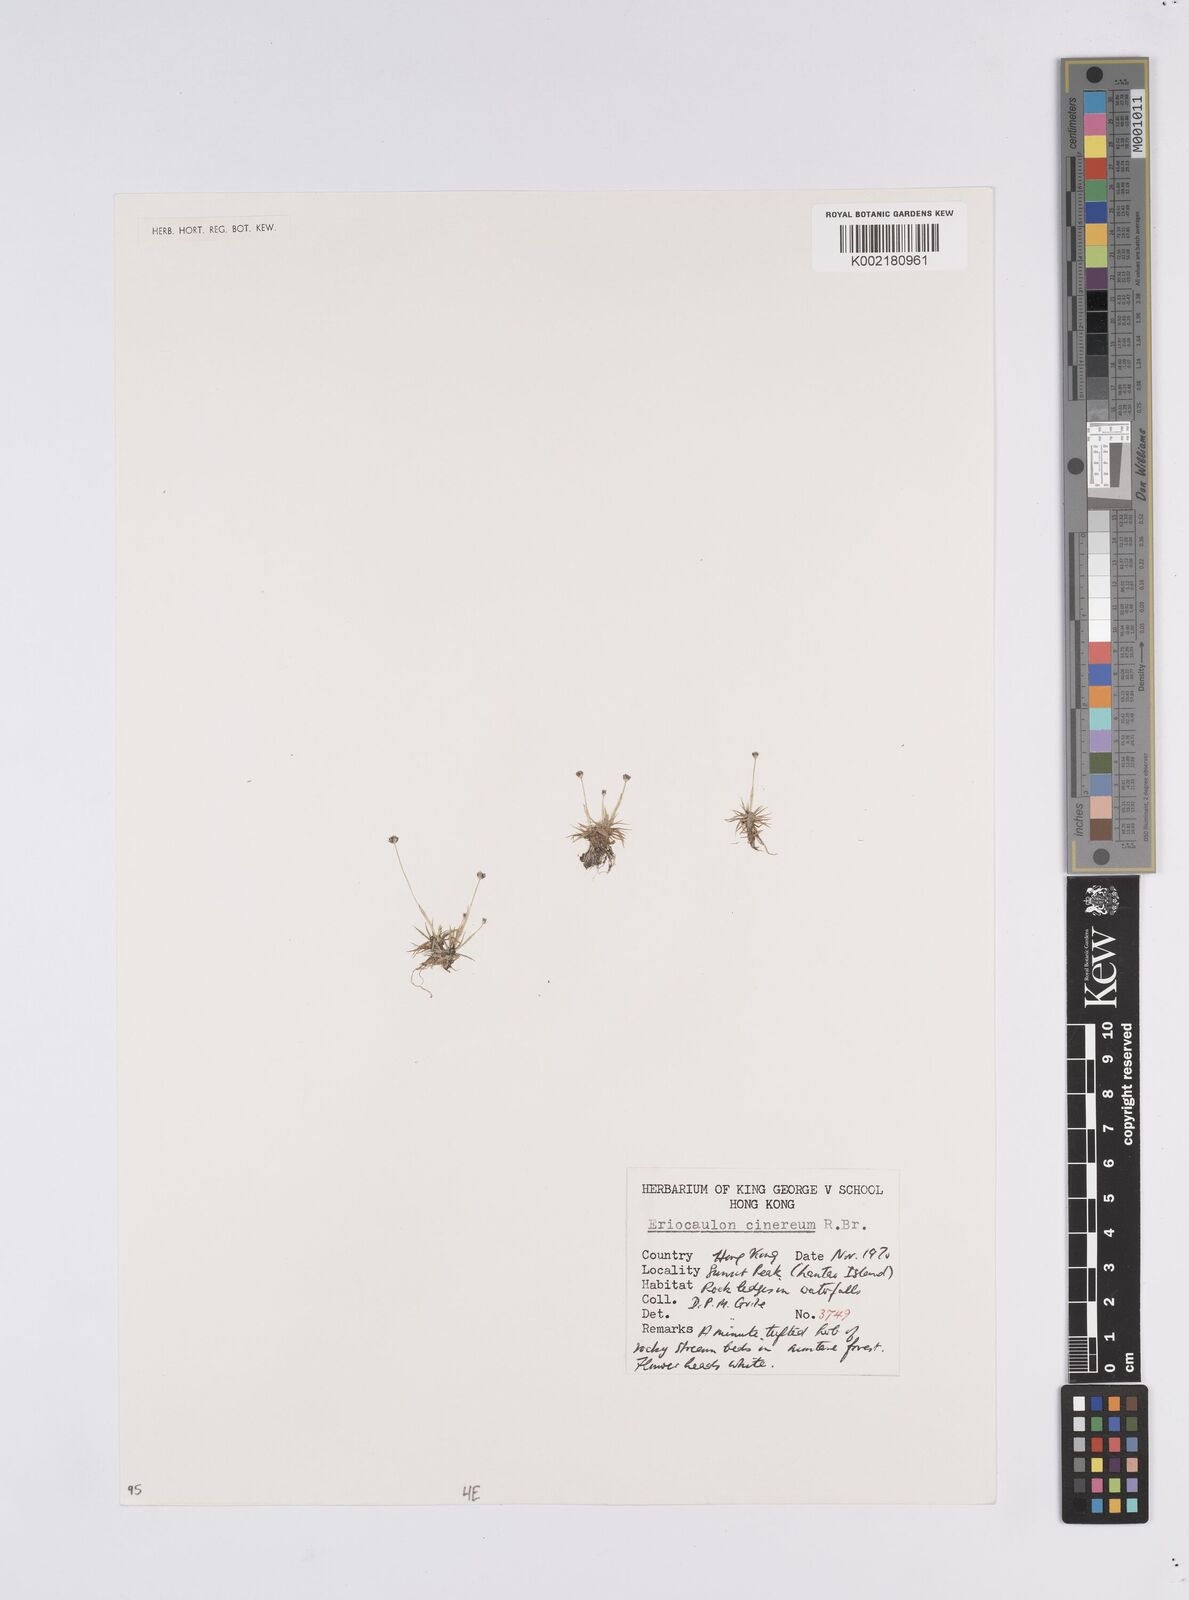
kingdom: Plantae
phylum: Tracheophyta
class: Liliopsida
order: Poales
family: Eriocaulaceae
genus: Eriocaulon
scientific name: Eriocaulon australe
